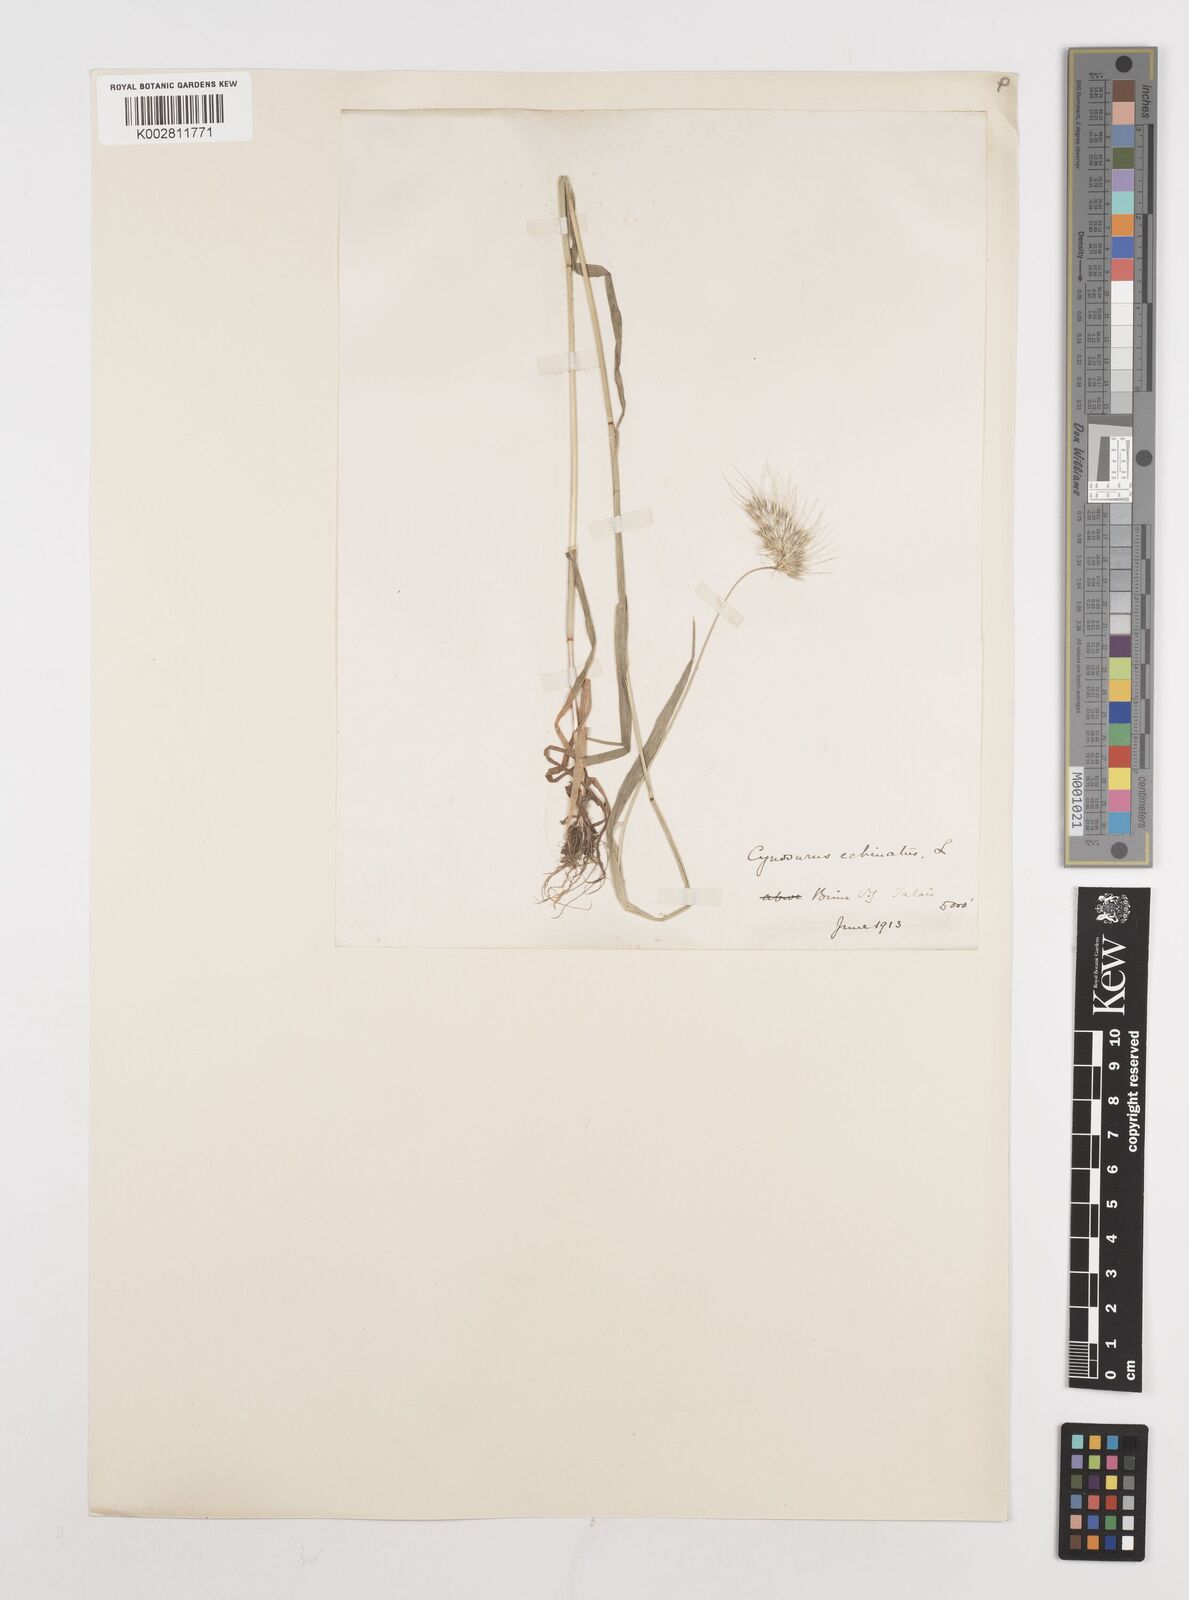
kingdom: Plantae
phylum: Tracheophyta
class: Liliopsida
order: Poales
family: Poaceae
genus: Cynosurus
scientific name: Cynosurus echinatus
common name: Rough dog's-tail
